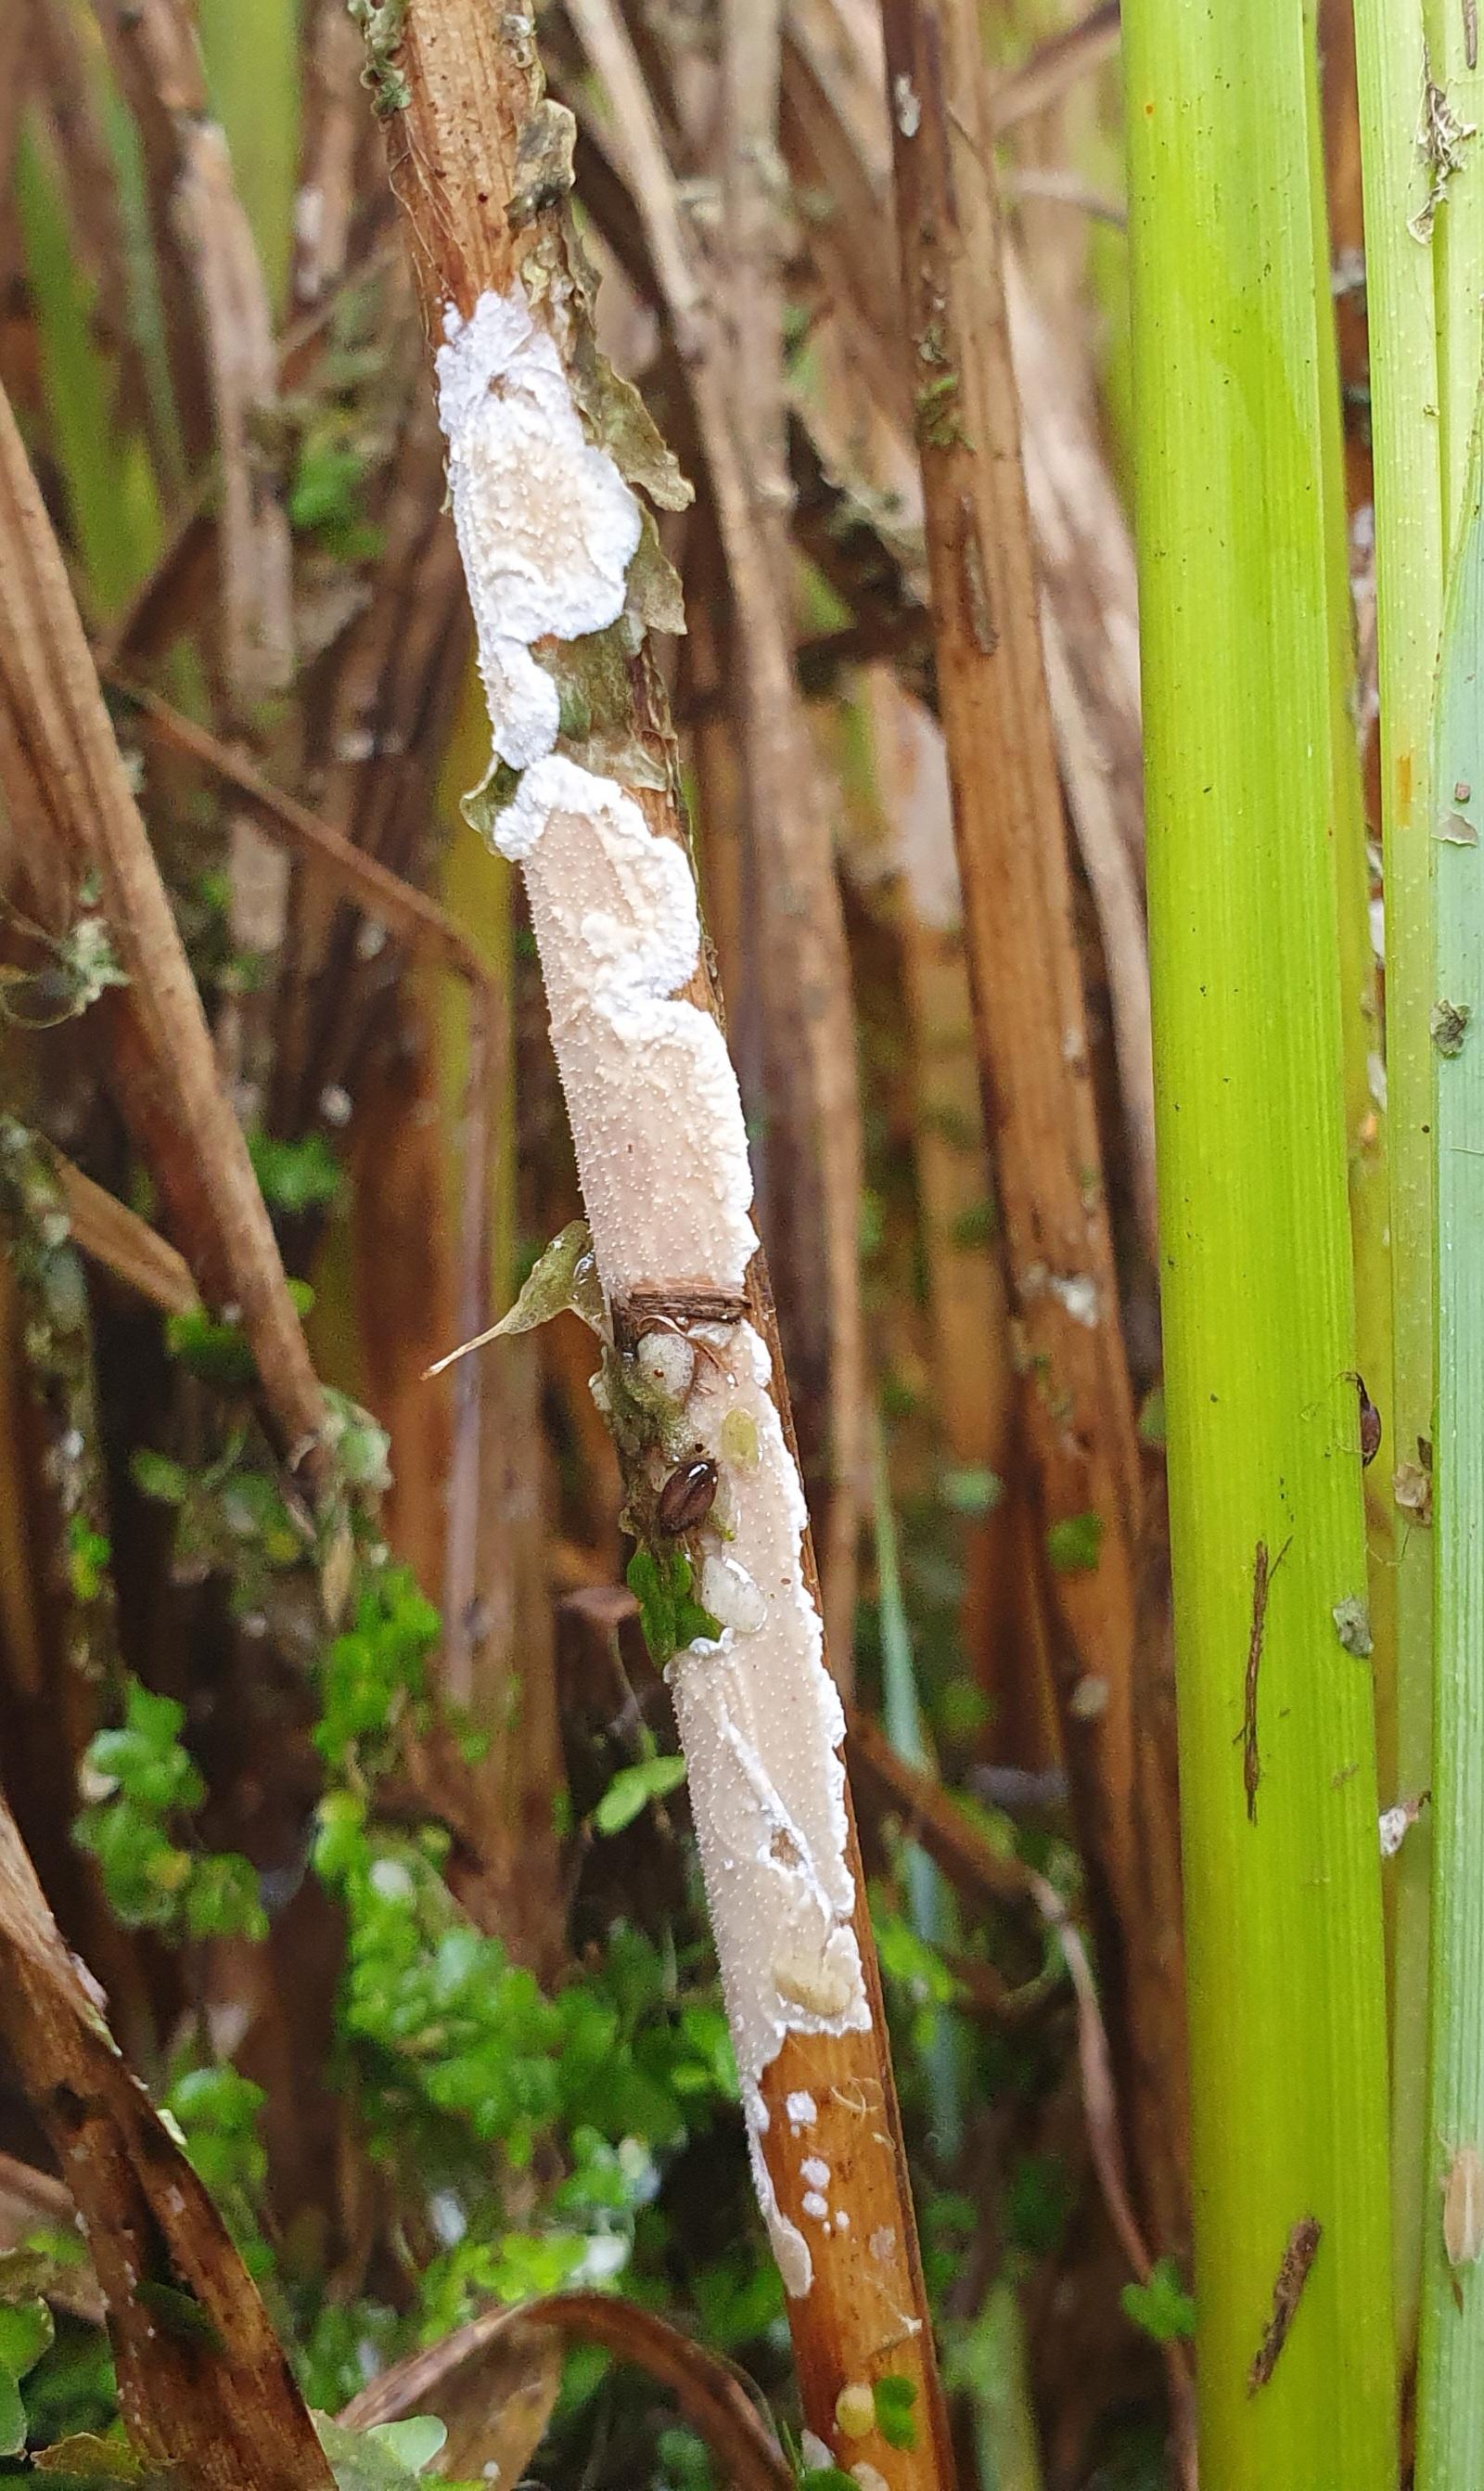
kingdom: Fungi
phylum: Basidiomycota
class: Agaricomycetes
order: Polyporales
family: Polyporaceae
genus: Epithele
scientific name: Epithele typhae
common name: starpig
